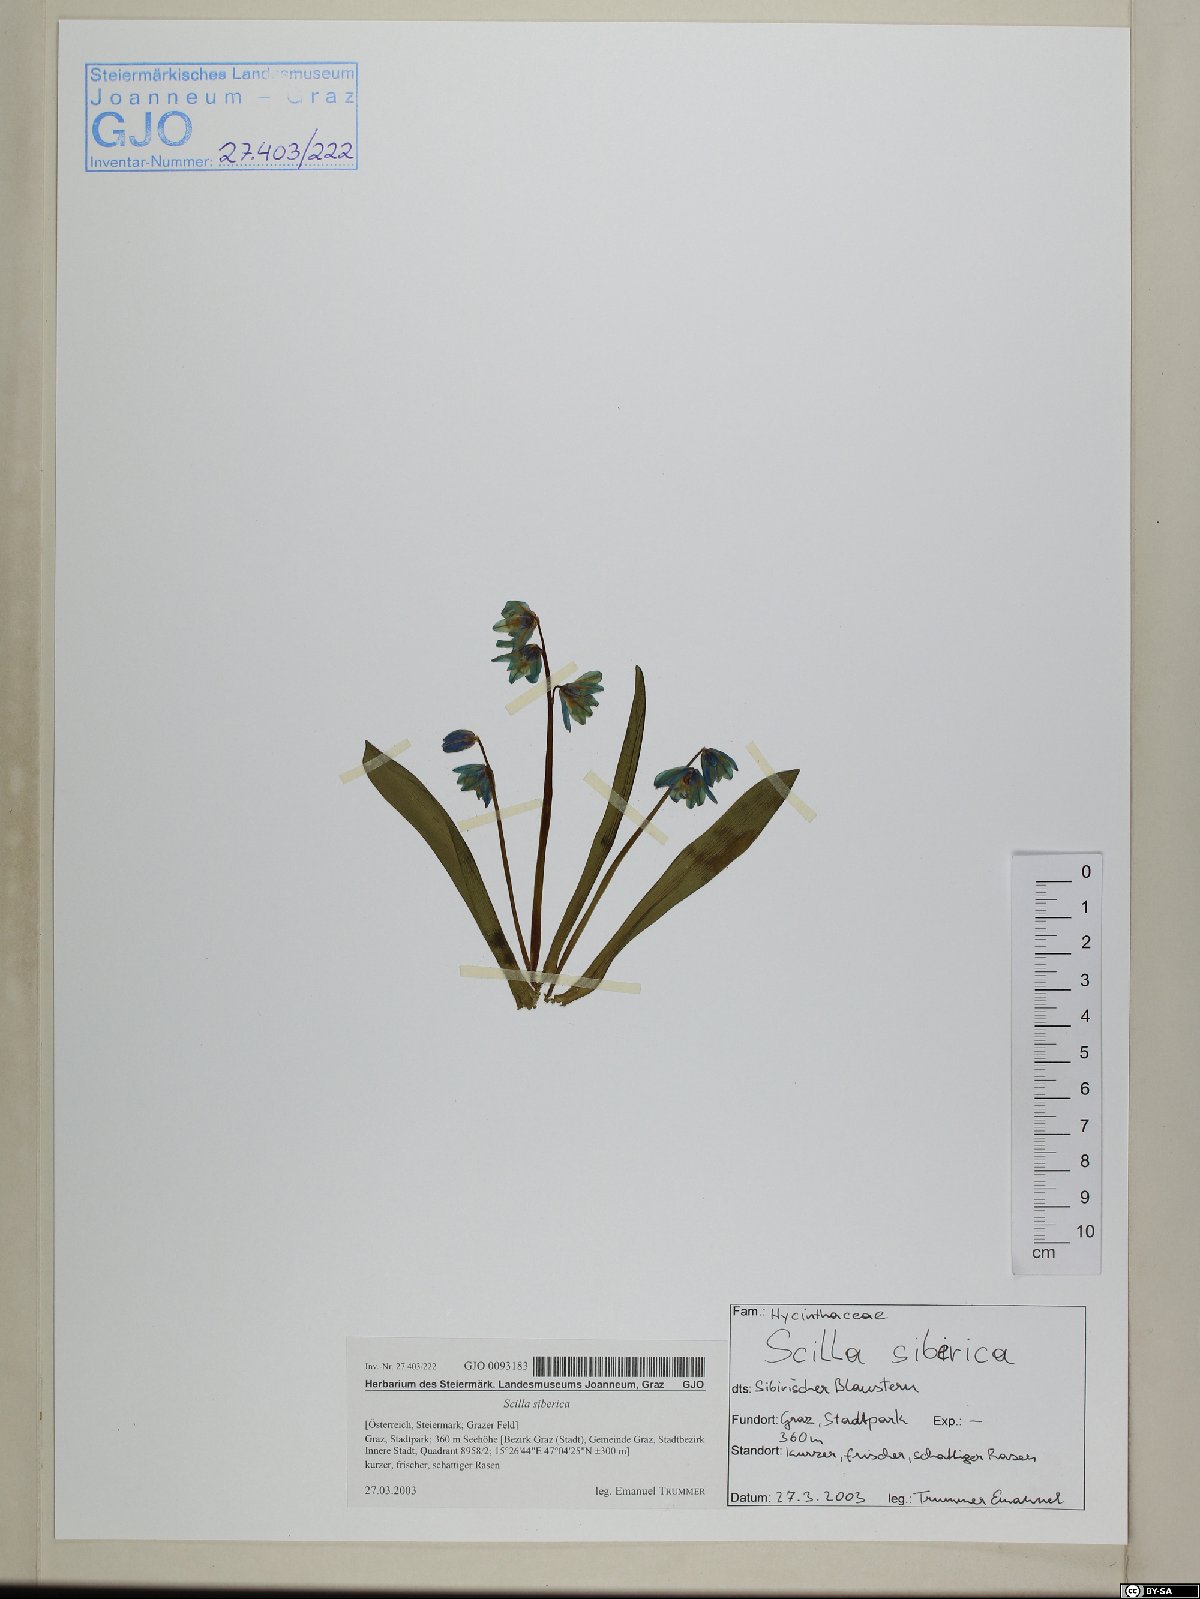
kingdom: Plantae
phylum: Tracheophyta
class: Liliopsida
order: Asparagales
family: Asparagaceae
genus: Scilla
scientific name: Scilla siberica
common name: Siberian squill
